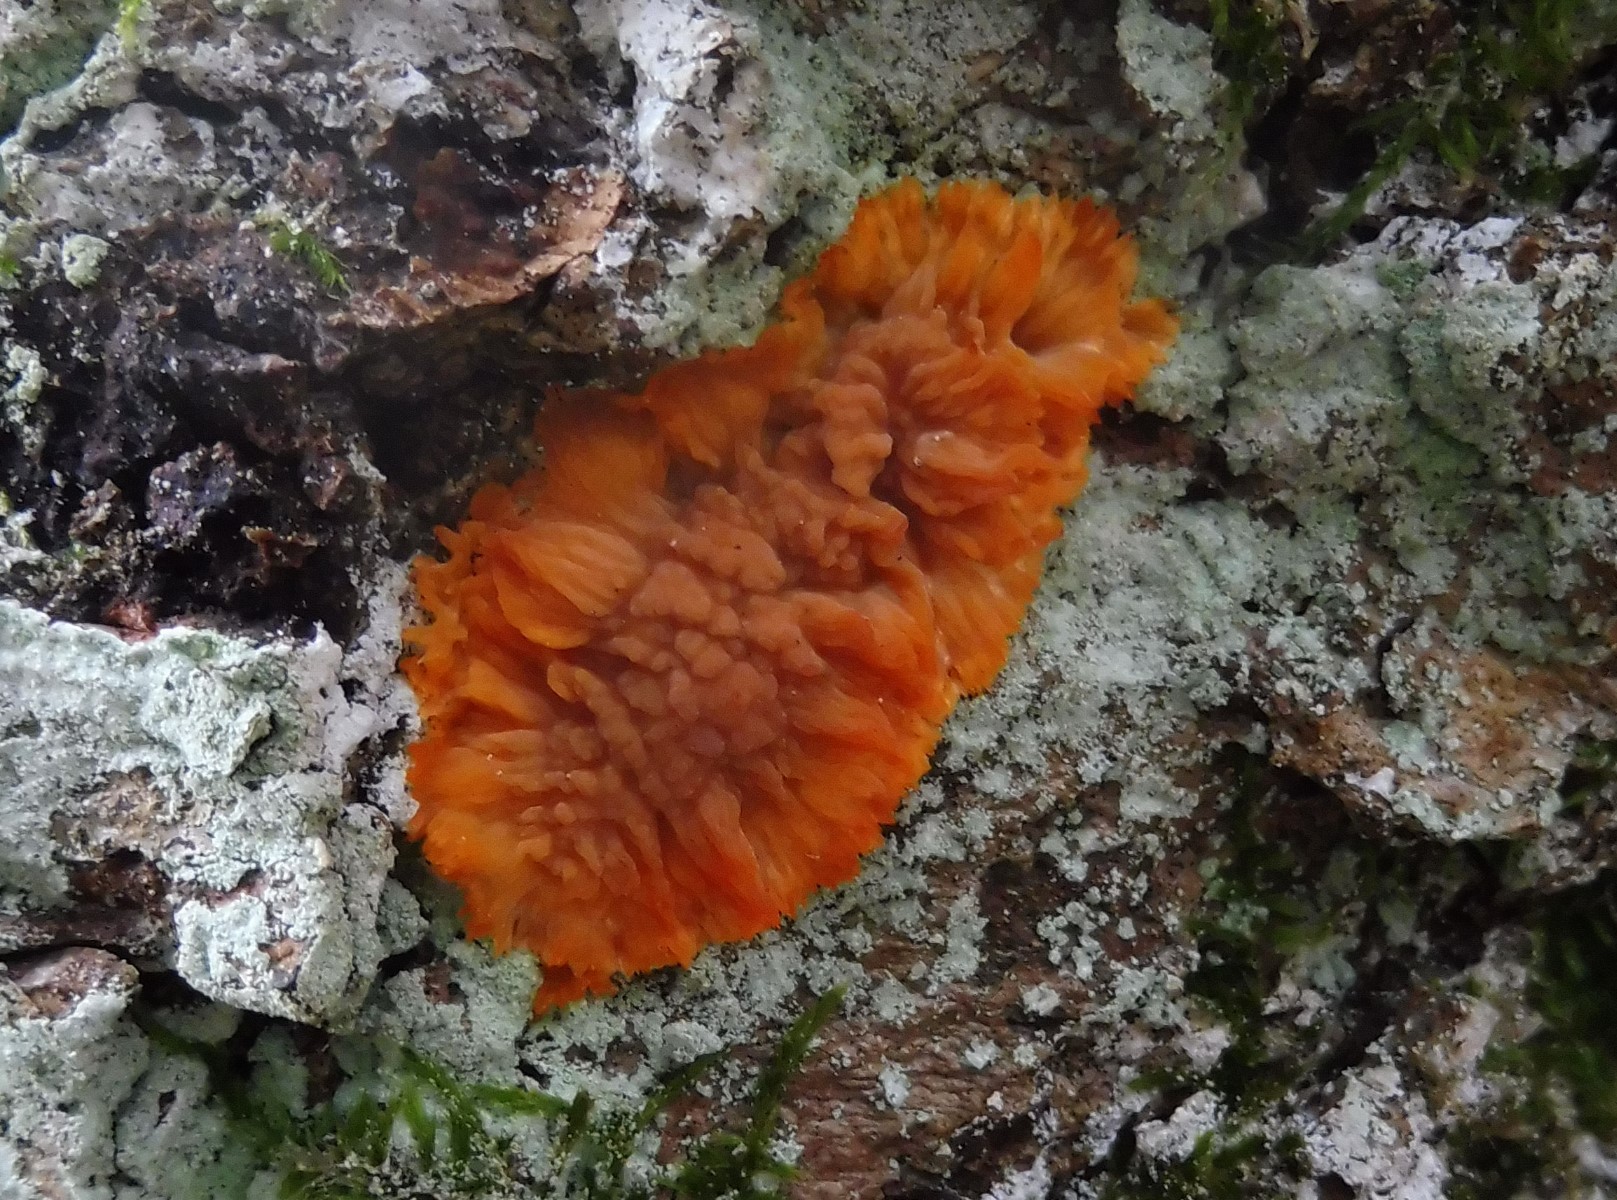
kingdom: Fungi
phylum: Basidiomycota
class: Agaricomycetes
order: Polyporales
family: Meruliaceae
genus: Phlebia
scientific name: Phlebia radiata
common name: stråle-åresvamp
